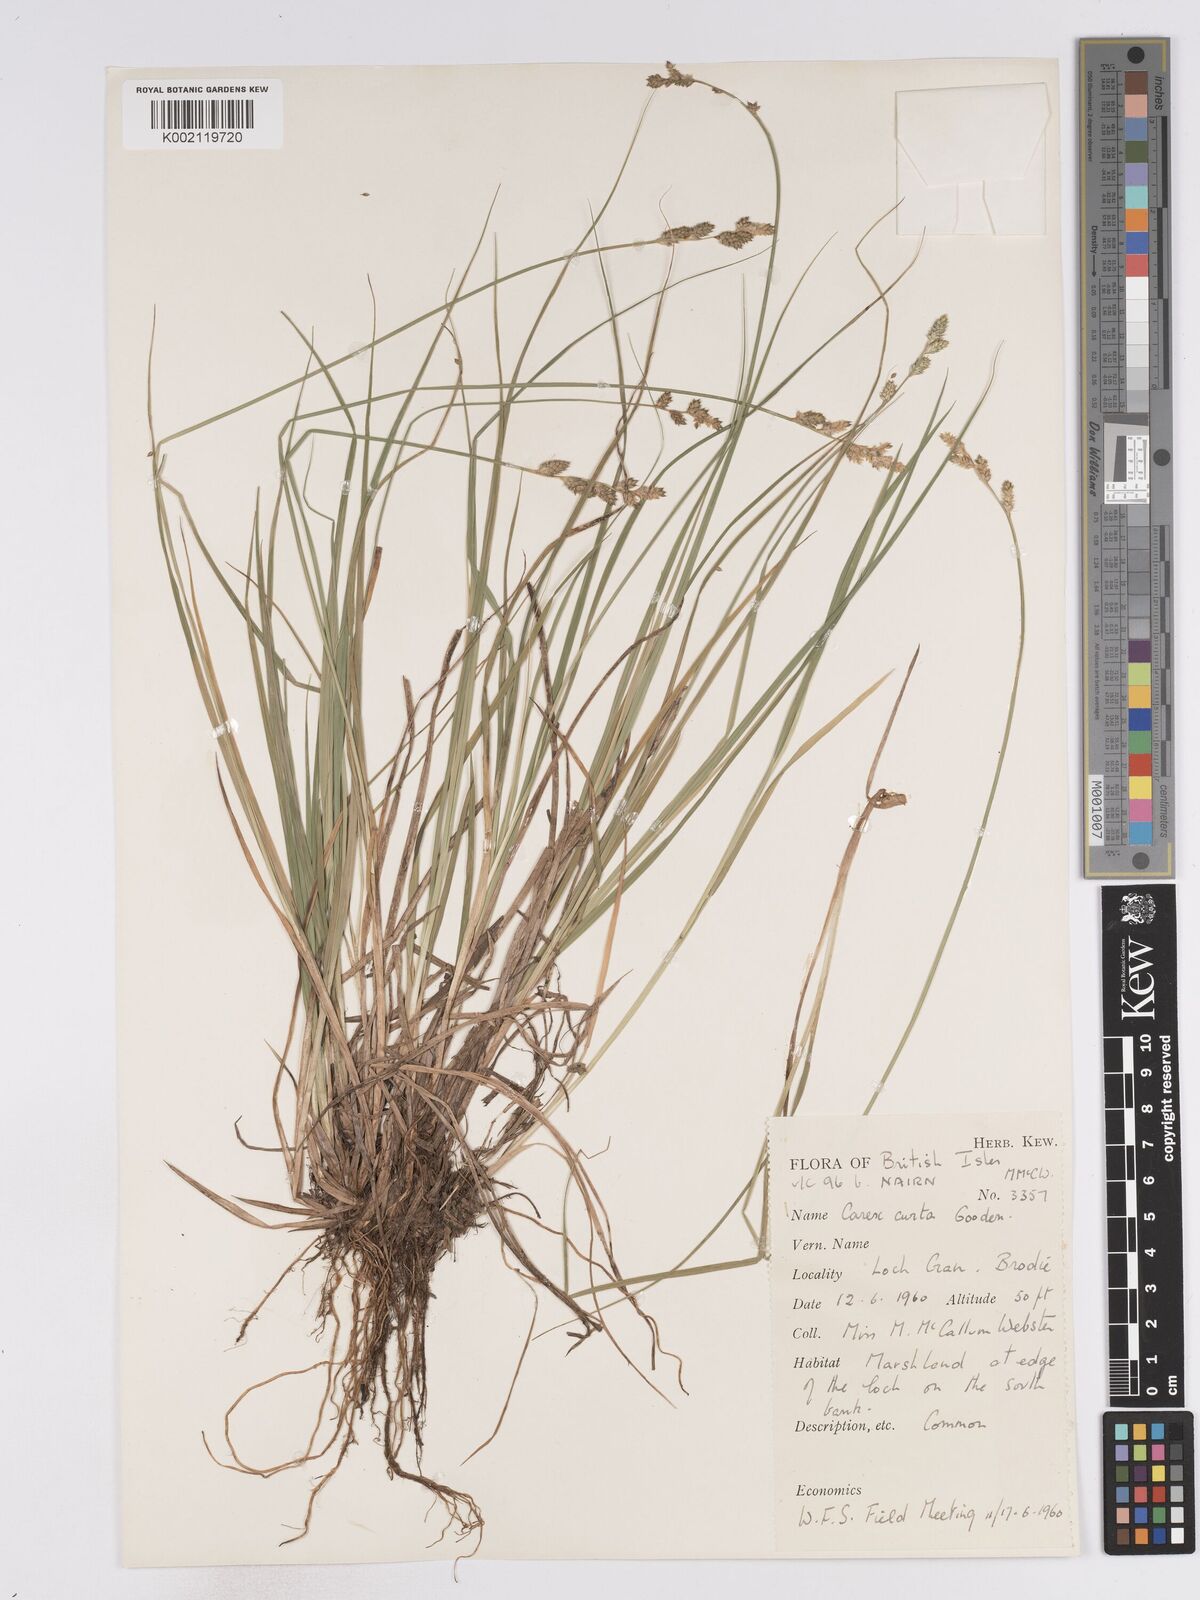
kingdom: Plantae
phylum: Tracheophyta
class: Liliopsida
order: Poales
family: Cyperaceae
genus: Carex
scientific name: Carex curta
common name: White sedge
